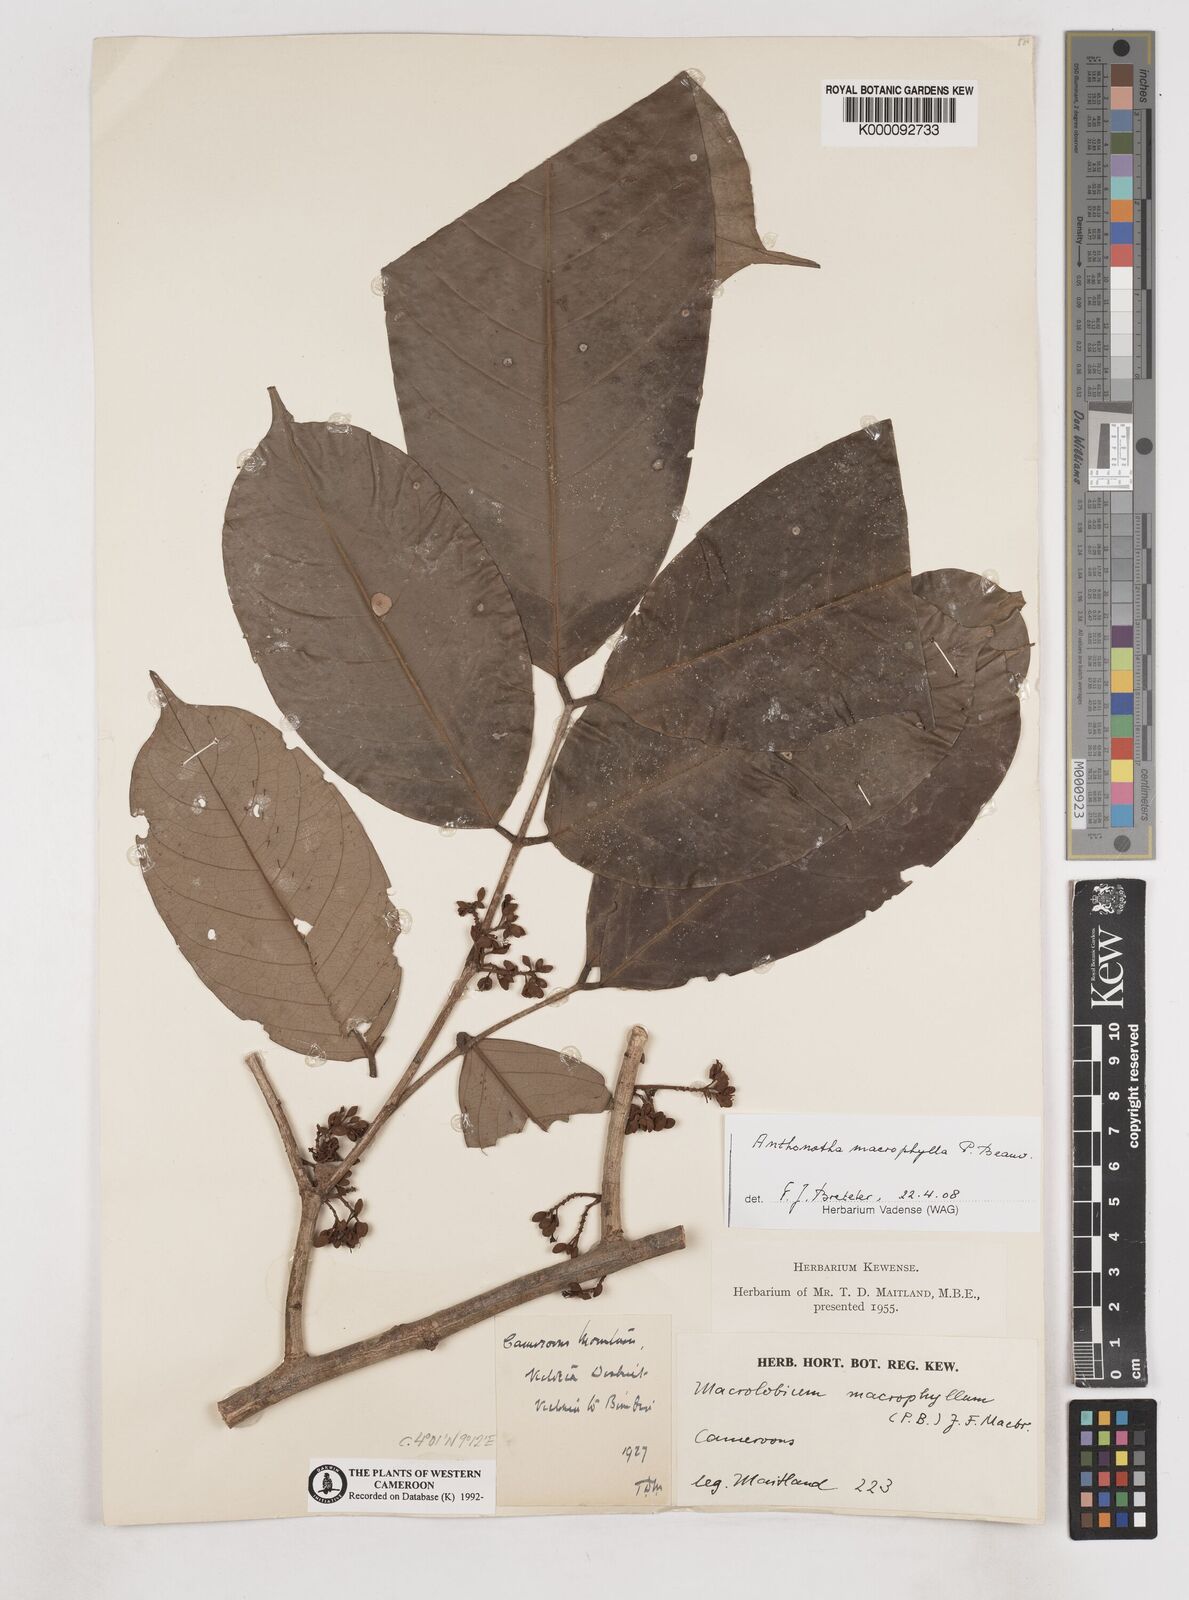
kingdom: Plantae
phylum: Tracheophyta
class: Magnoliopsida
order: Fabales
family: Fabaceae
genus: Anthonotha
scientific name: Anthonotha macrophylla
